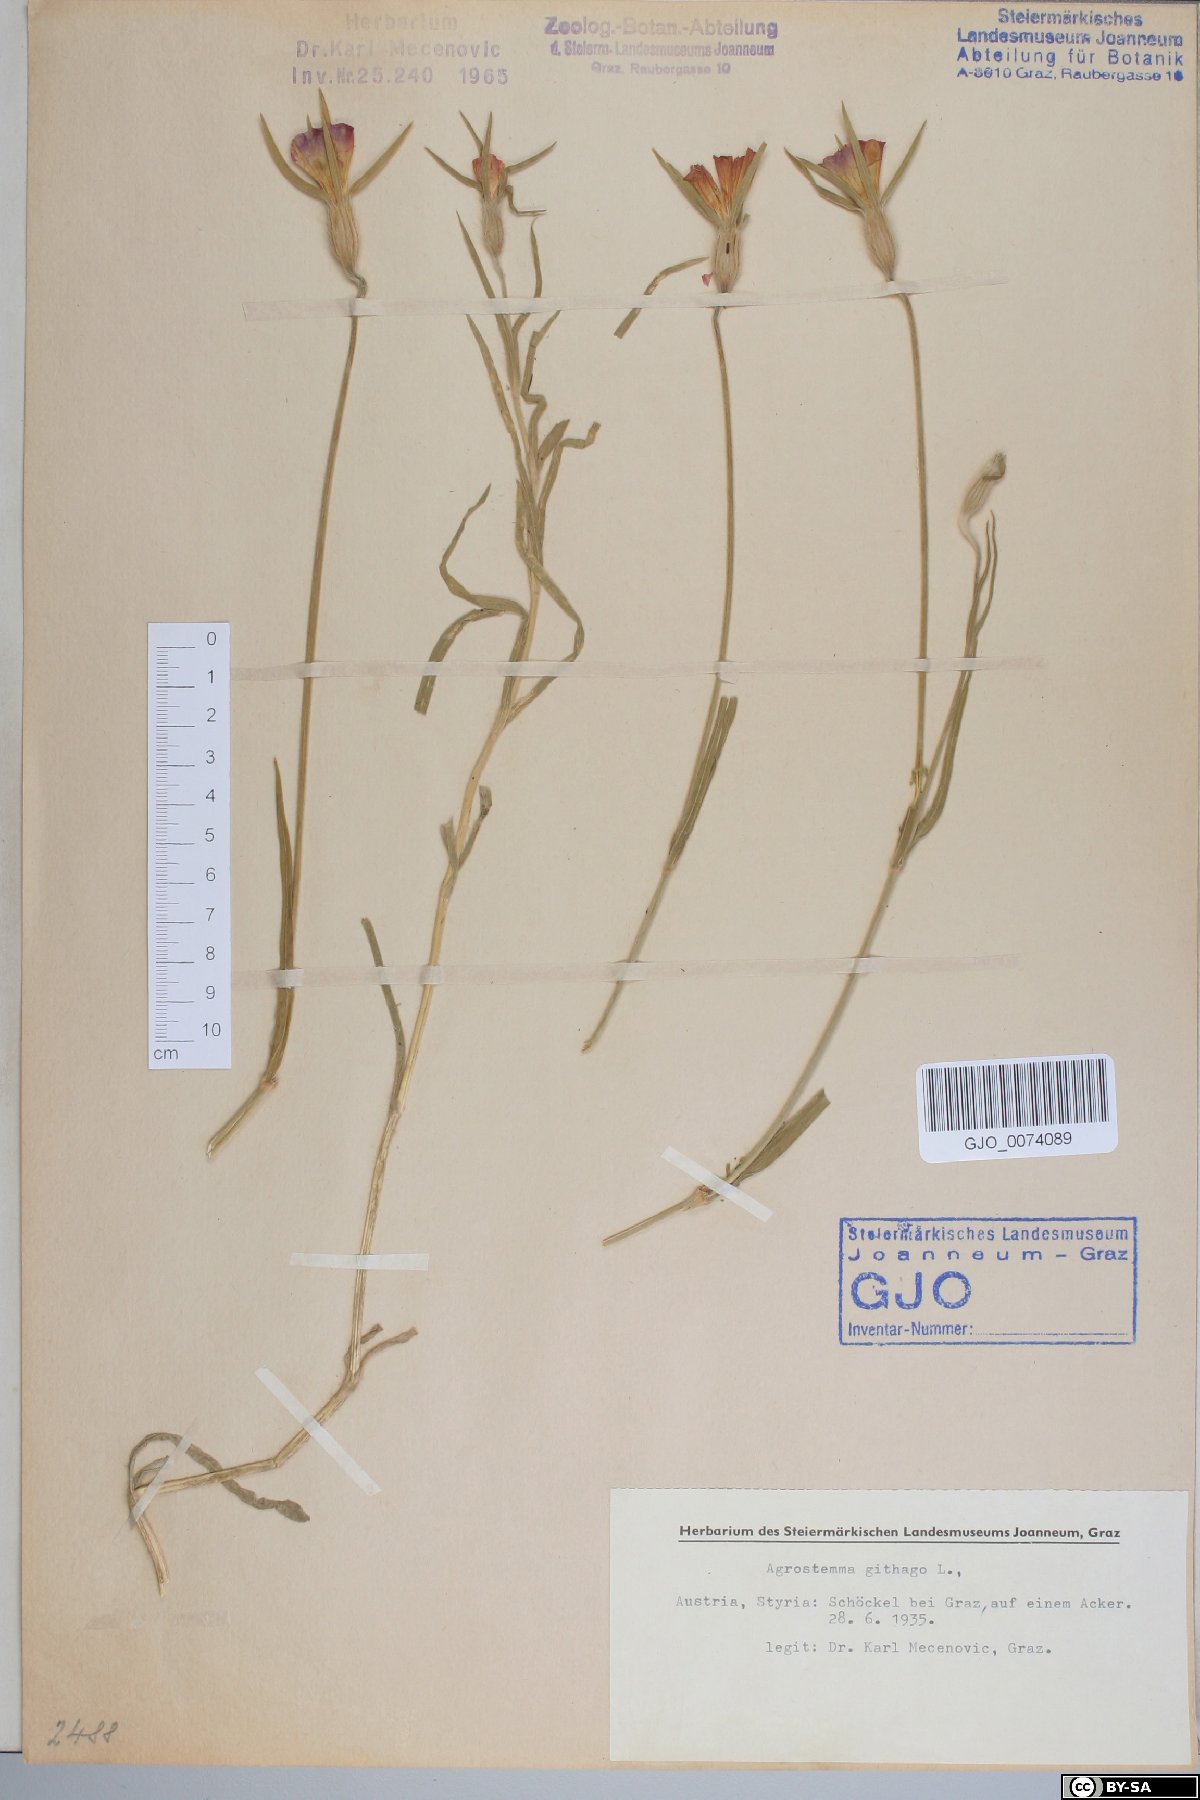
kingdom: Plantae
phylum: Tracheophyta
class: Magnoliopsida
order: Caryophyllales
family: Caryophyllaceae
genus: Agrostemma
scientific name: Agrostemma githago
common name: Common corncockle
